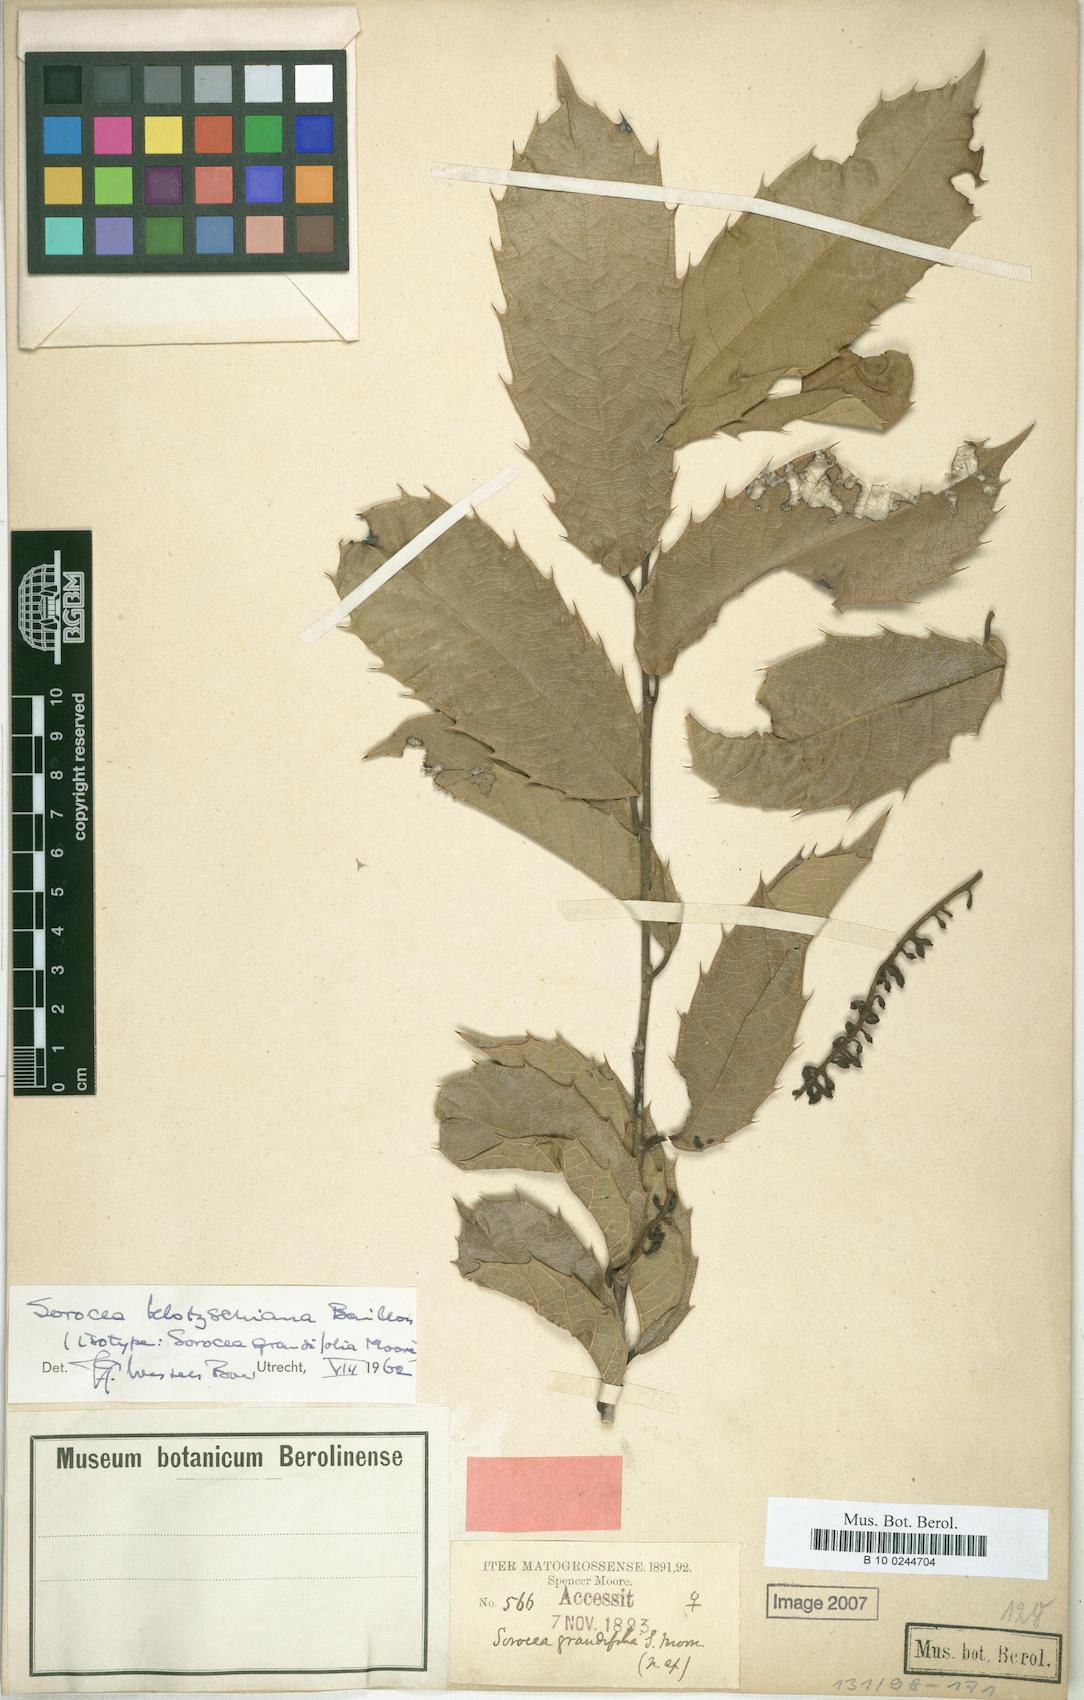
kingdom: Plantae
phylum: Tracheophyta
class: Magnoliopsida
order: Rosales
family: Moraceae
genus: Sorocea
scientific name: Sorocea guilleminiana
